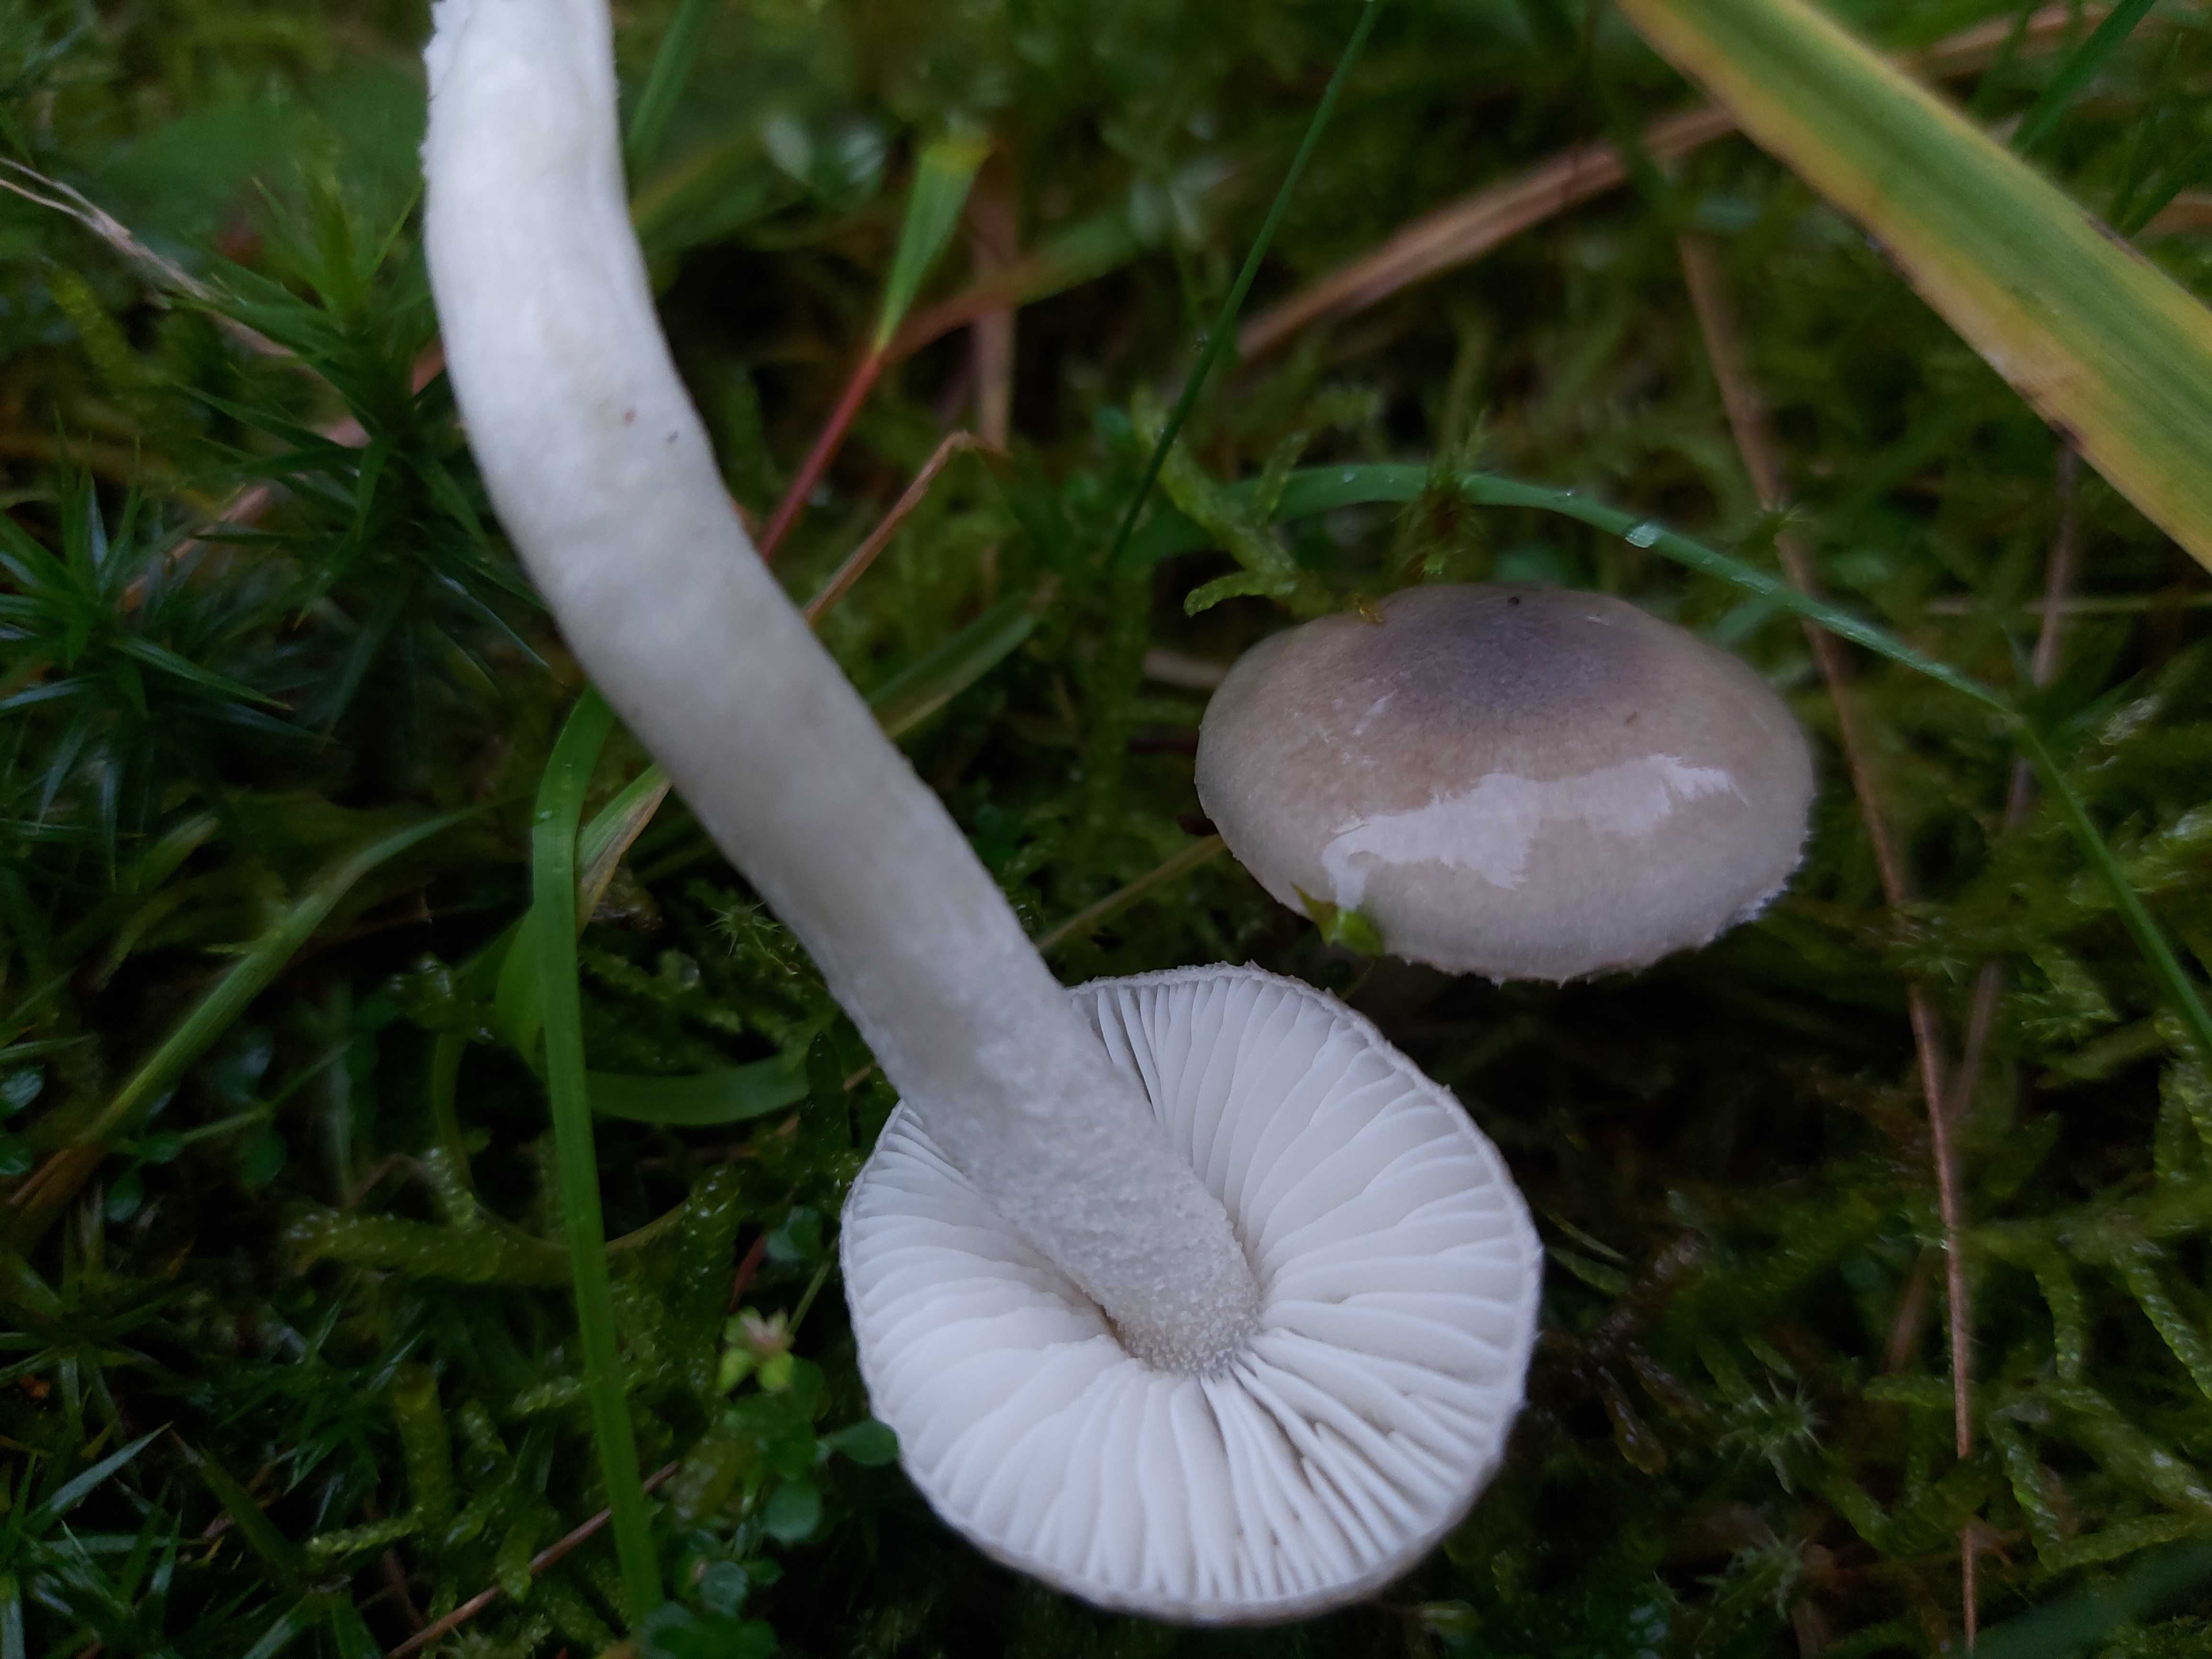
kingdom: Fungi
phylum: Basidiomycota
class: Agaricomycetes
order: Agaricales
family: Hygrophoraceae
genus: Hygrophorus
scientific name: Hygrophorus
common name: sneglehat
